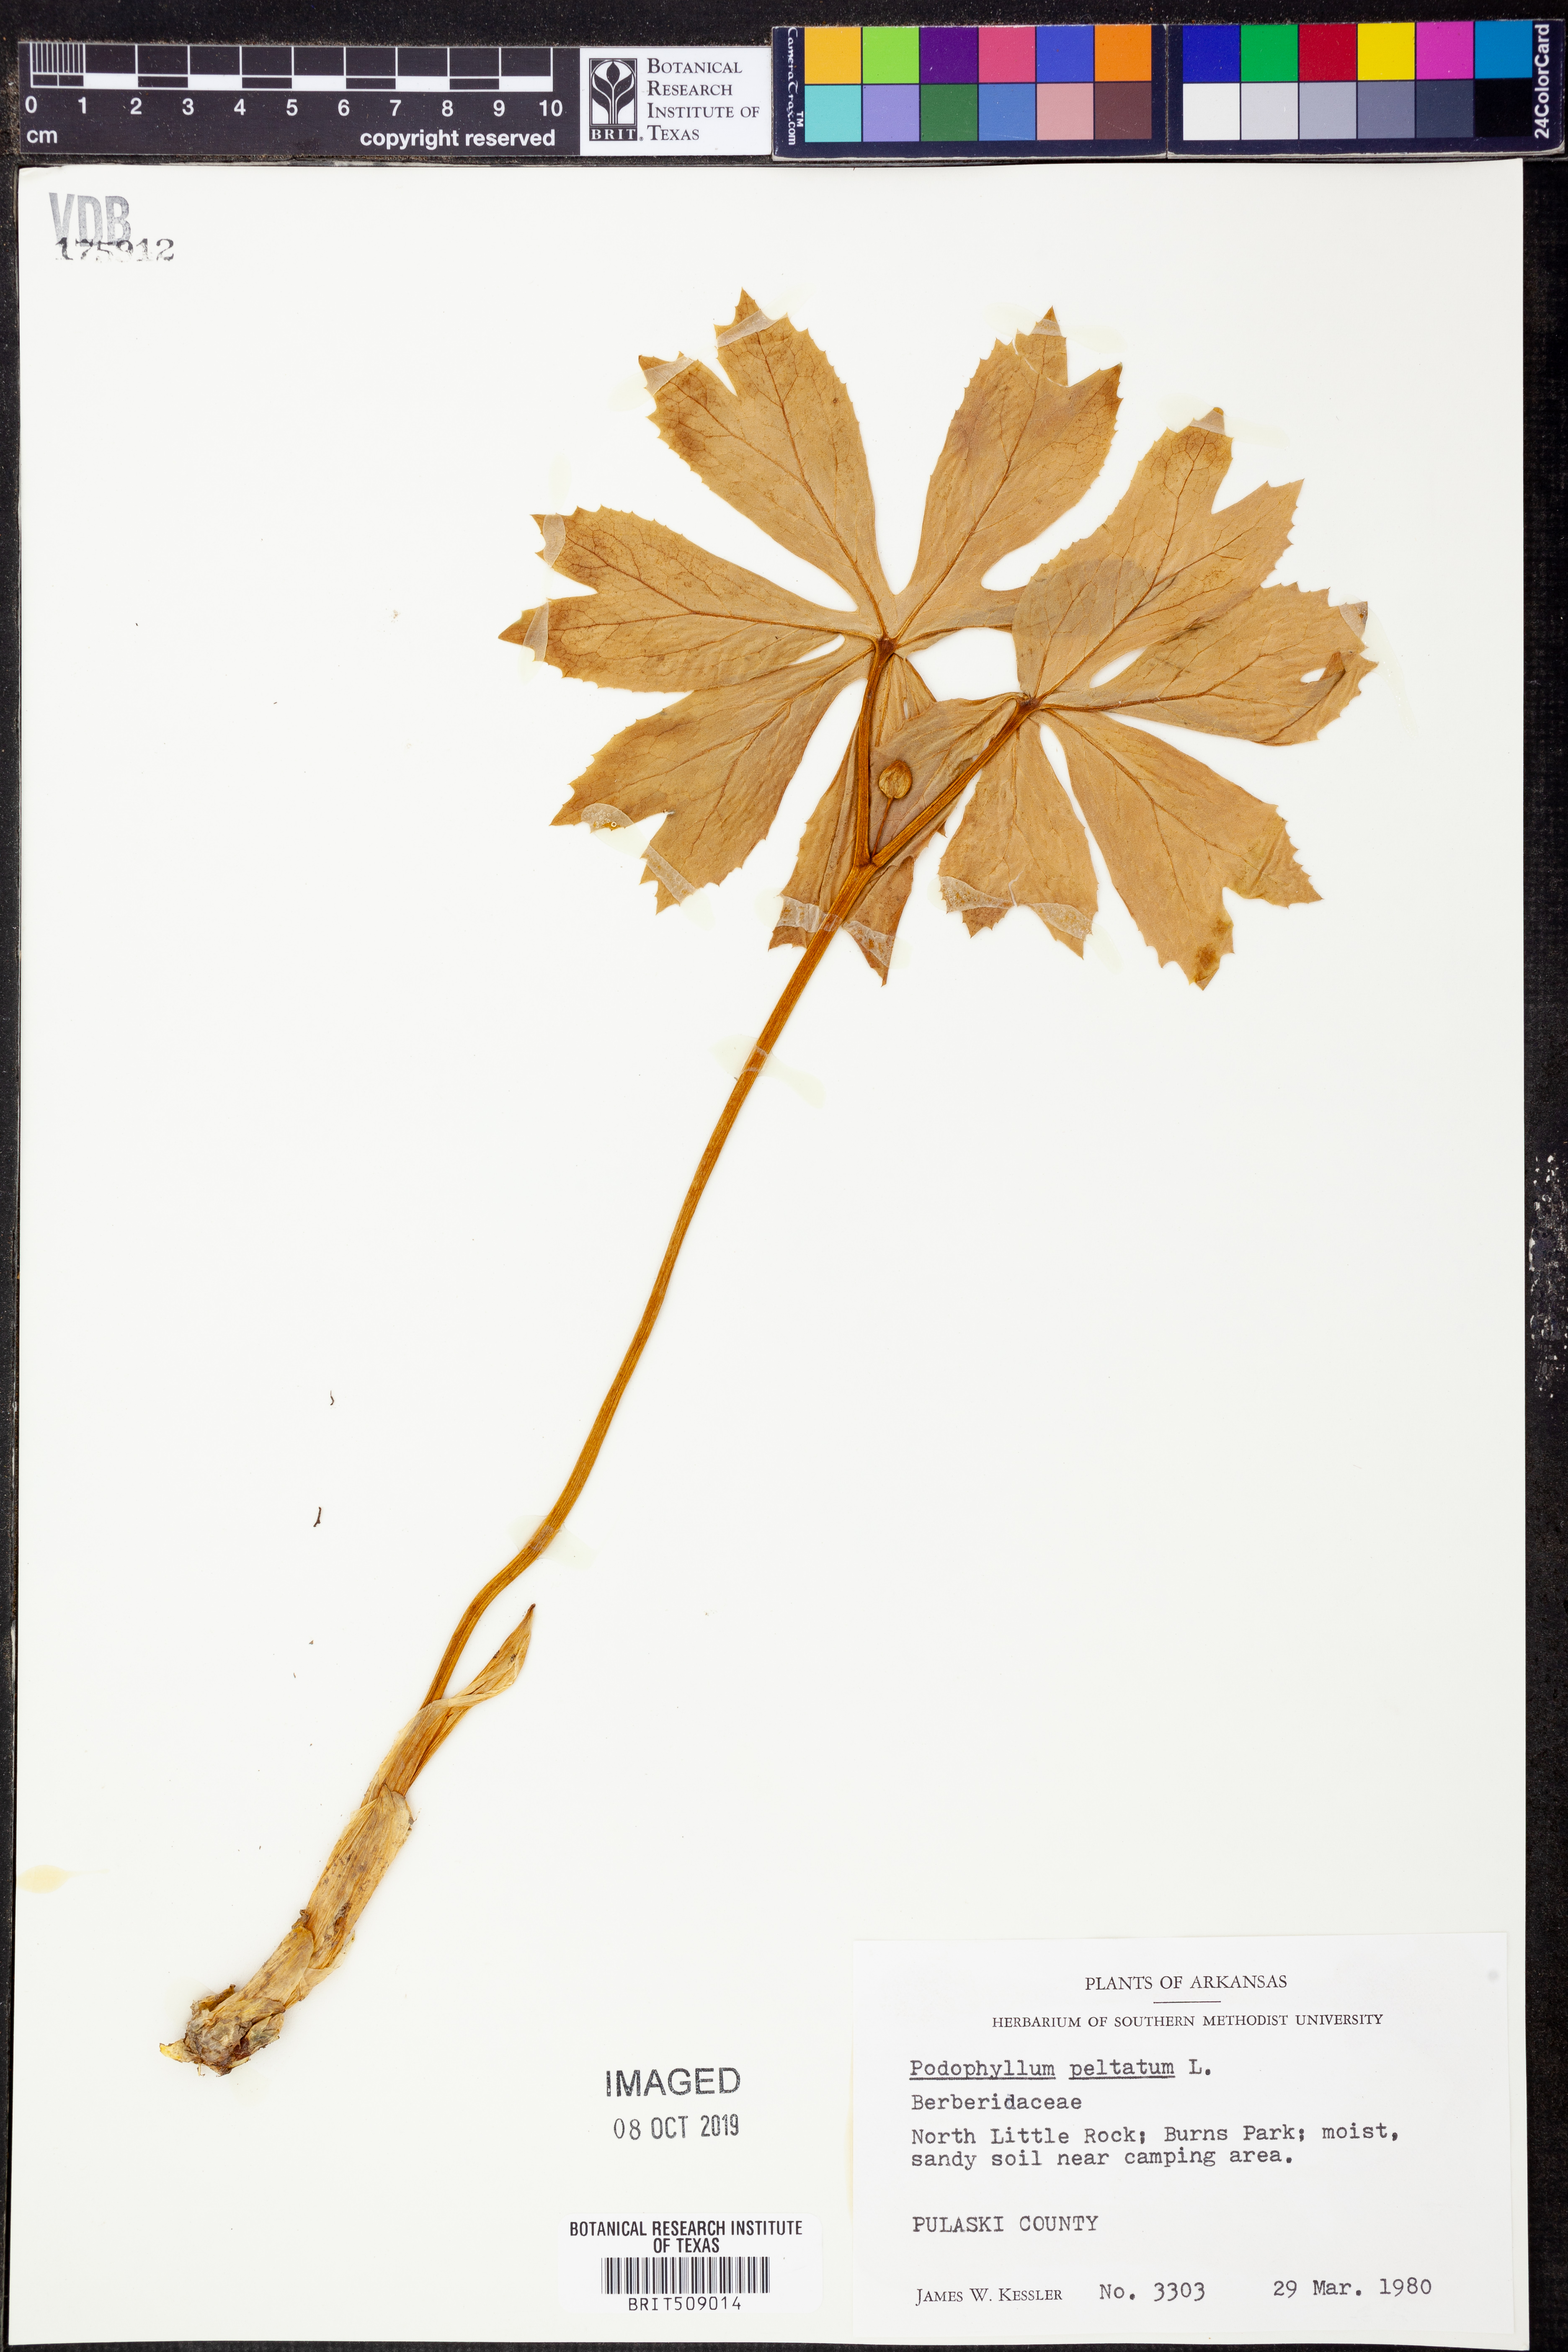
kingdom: Plantae
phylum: Tracheophyta
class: Magnoliopsida
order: Ranunculales
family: Berberidaceae
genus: Podophyllum
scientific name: Podophyllum peltatum
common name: Wild mandrake
